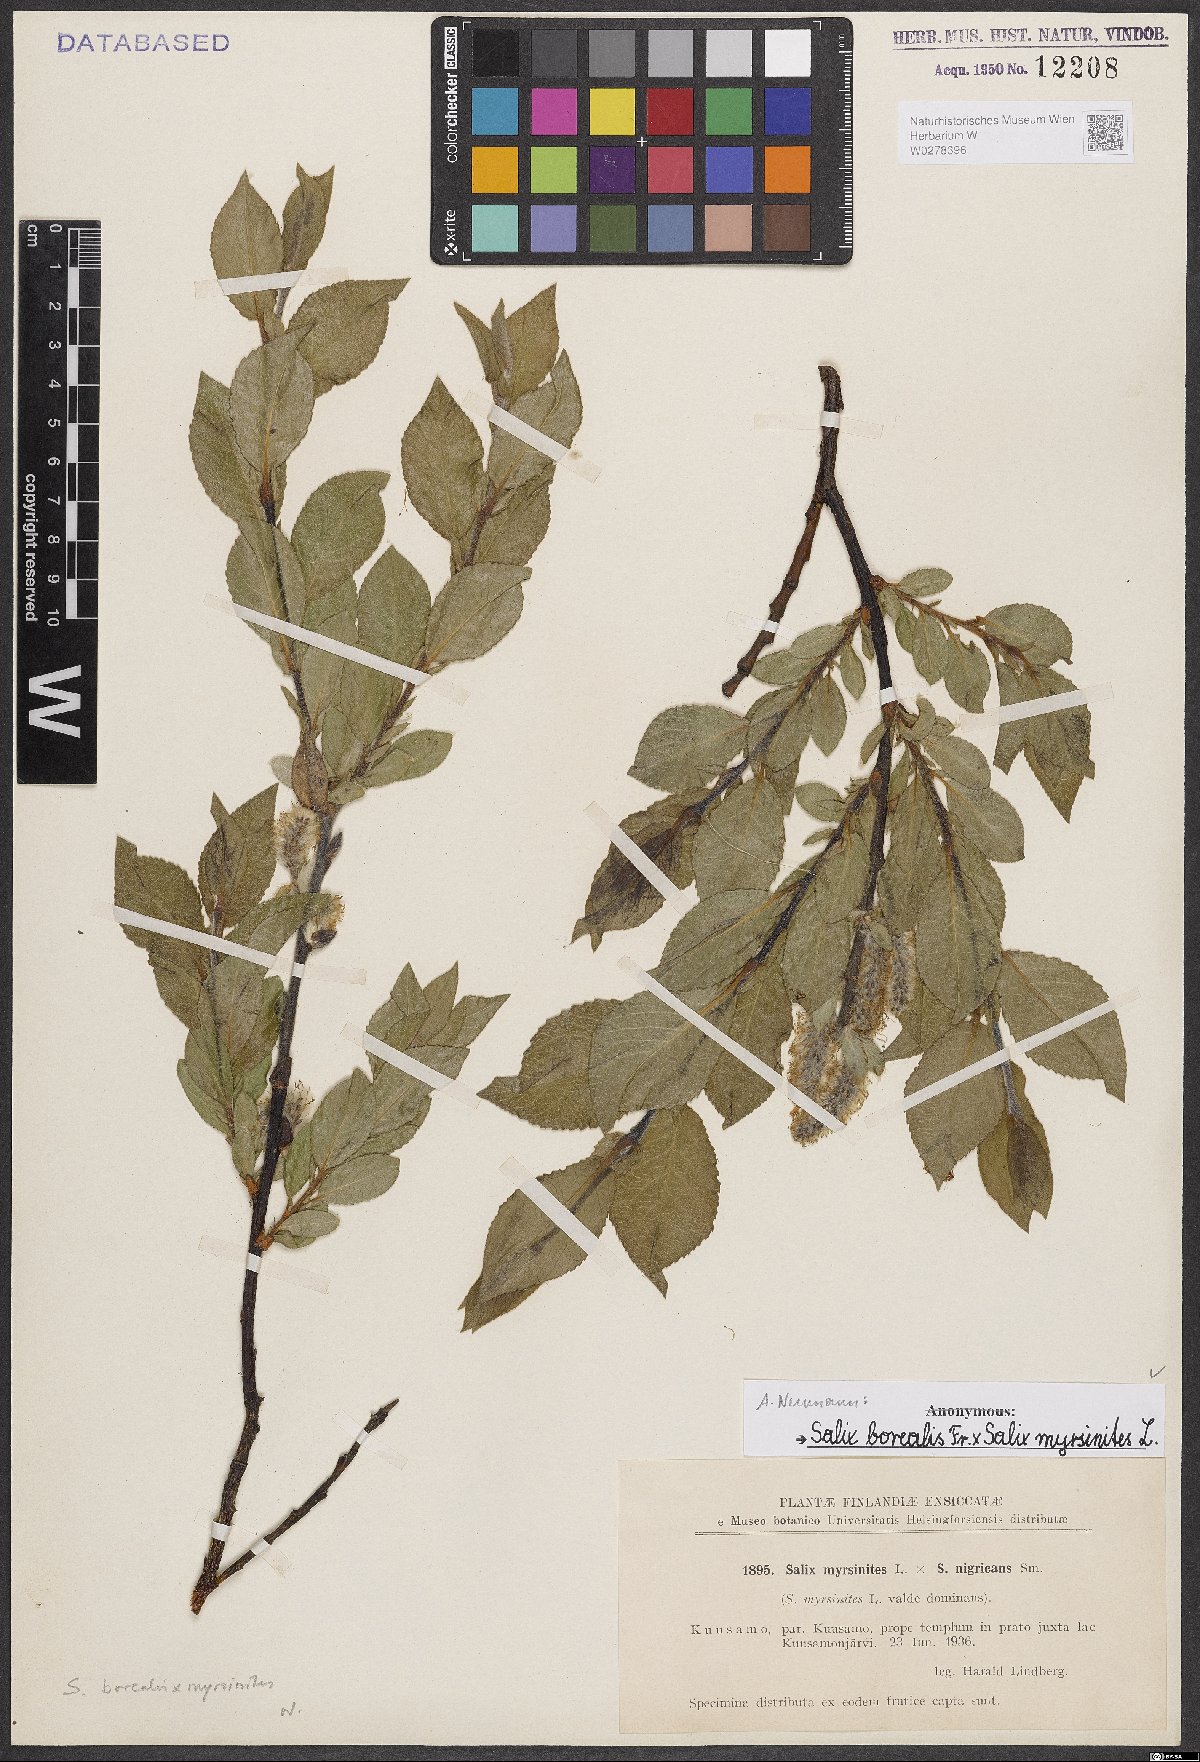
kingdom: Plantae
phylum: Tracheophyta
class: Magnoliopsida
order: Malpighiales
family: Salicaceae
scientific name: Salicaceae
